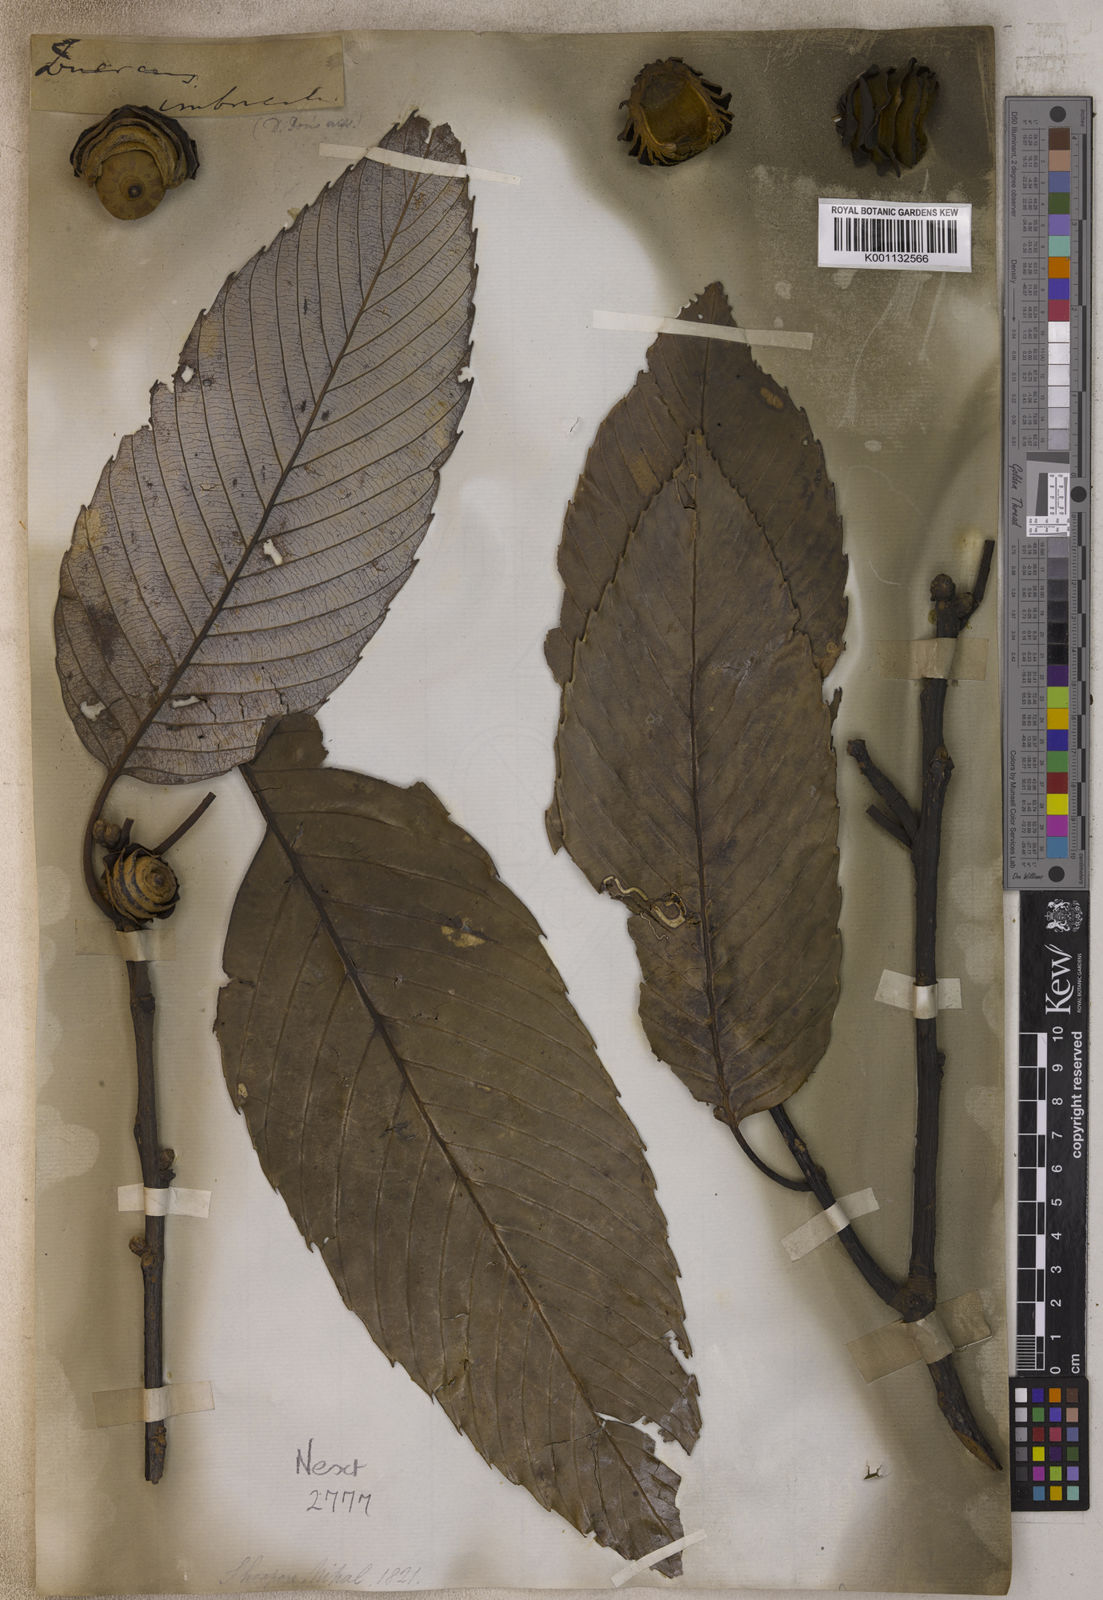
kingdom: Plantae
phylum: Tracheophyta
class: Magnoliopsida
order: Fagales
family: Fagaceae
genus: Quercus
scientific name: Quercus lamellosa
